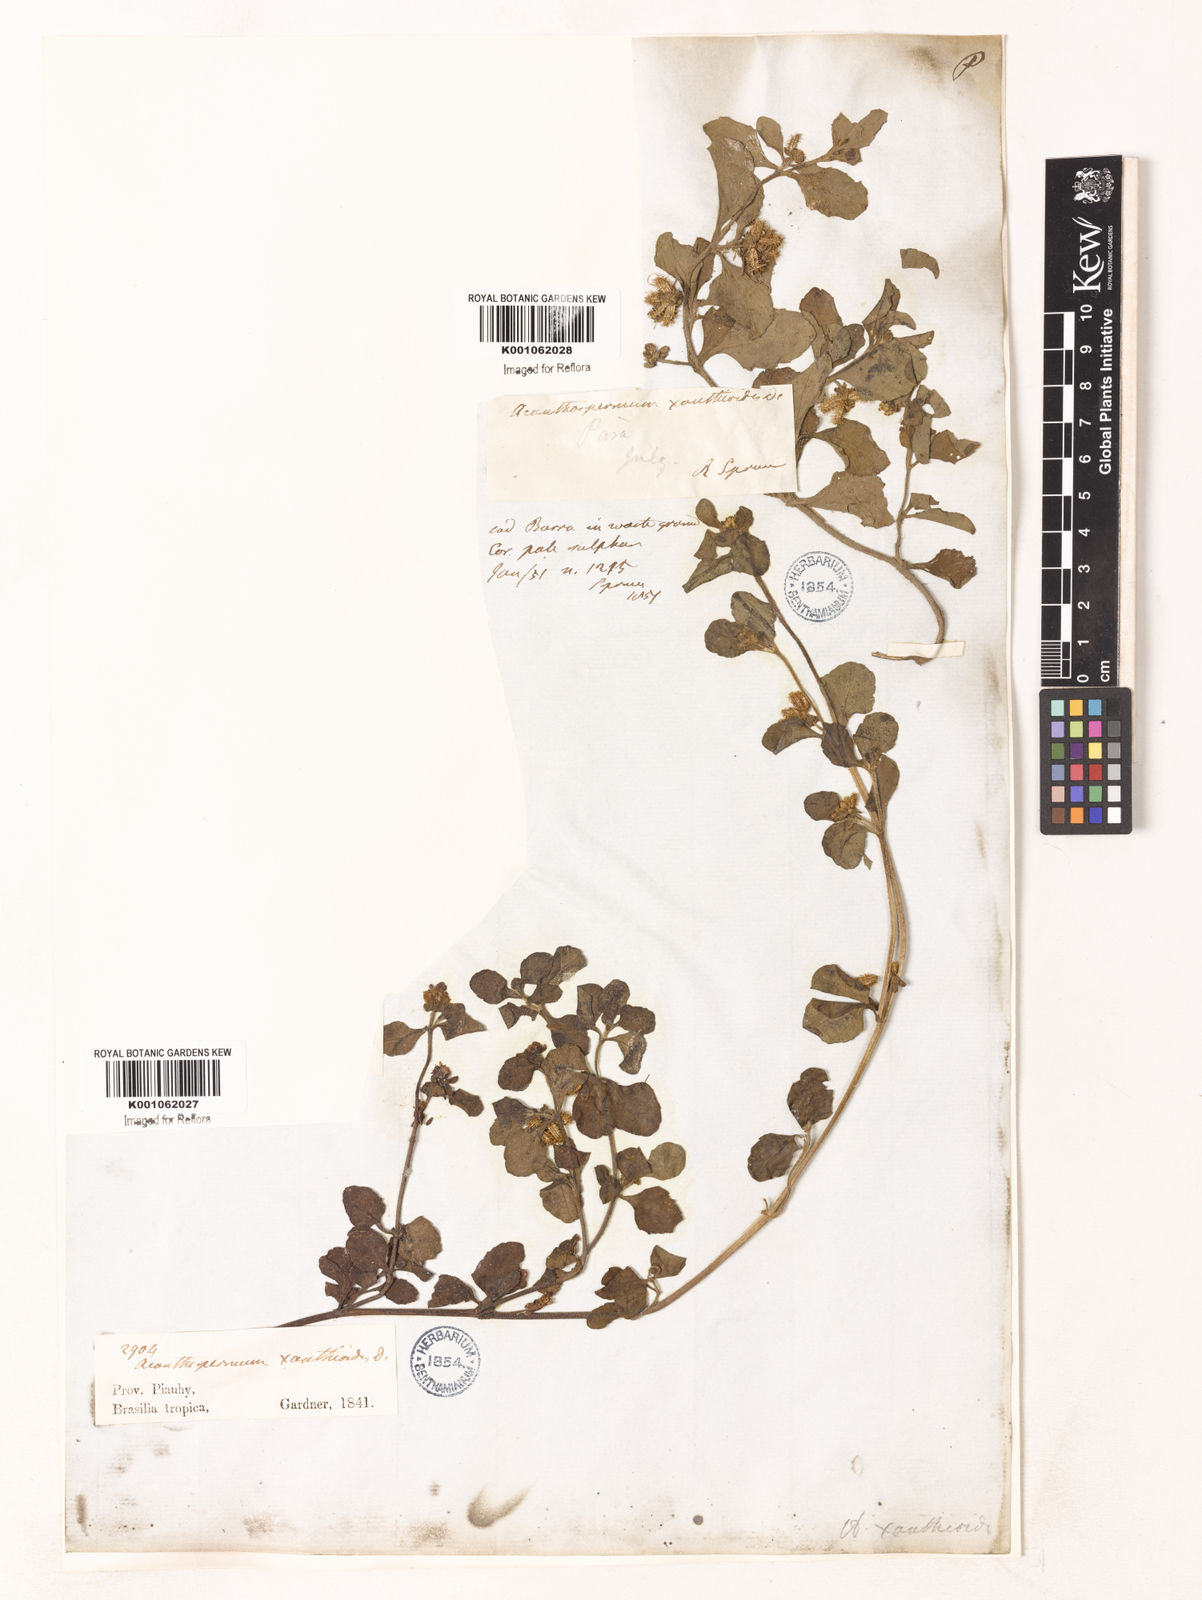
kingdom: Plantae
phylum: Tracheophyta
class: Magnoliopsida
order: Asterales
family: Asteraceae
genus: Acanthospermum
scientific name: Acanthospermum australe
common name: Paraguayan starbur
